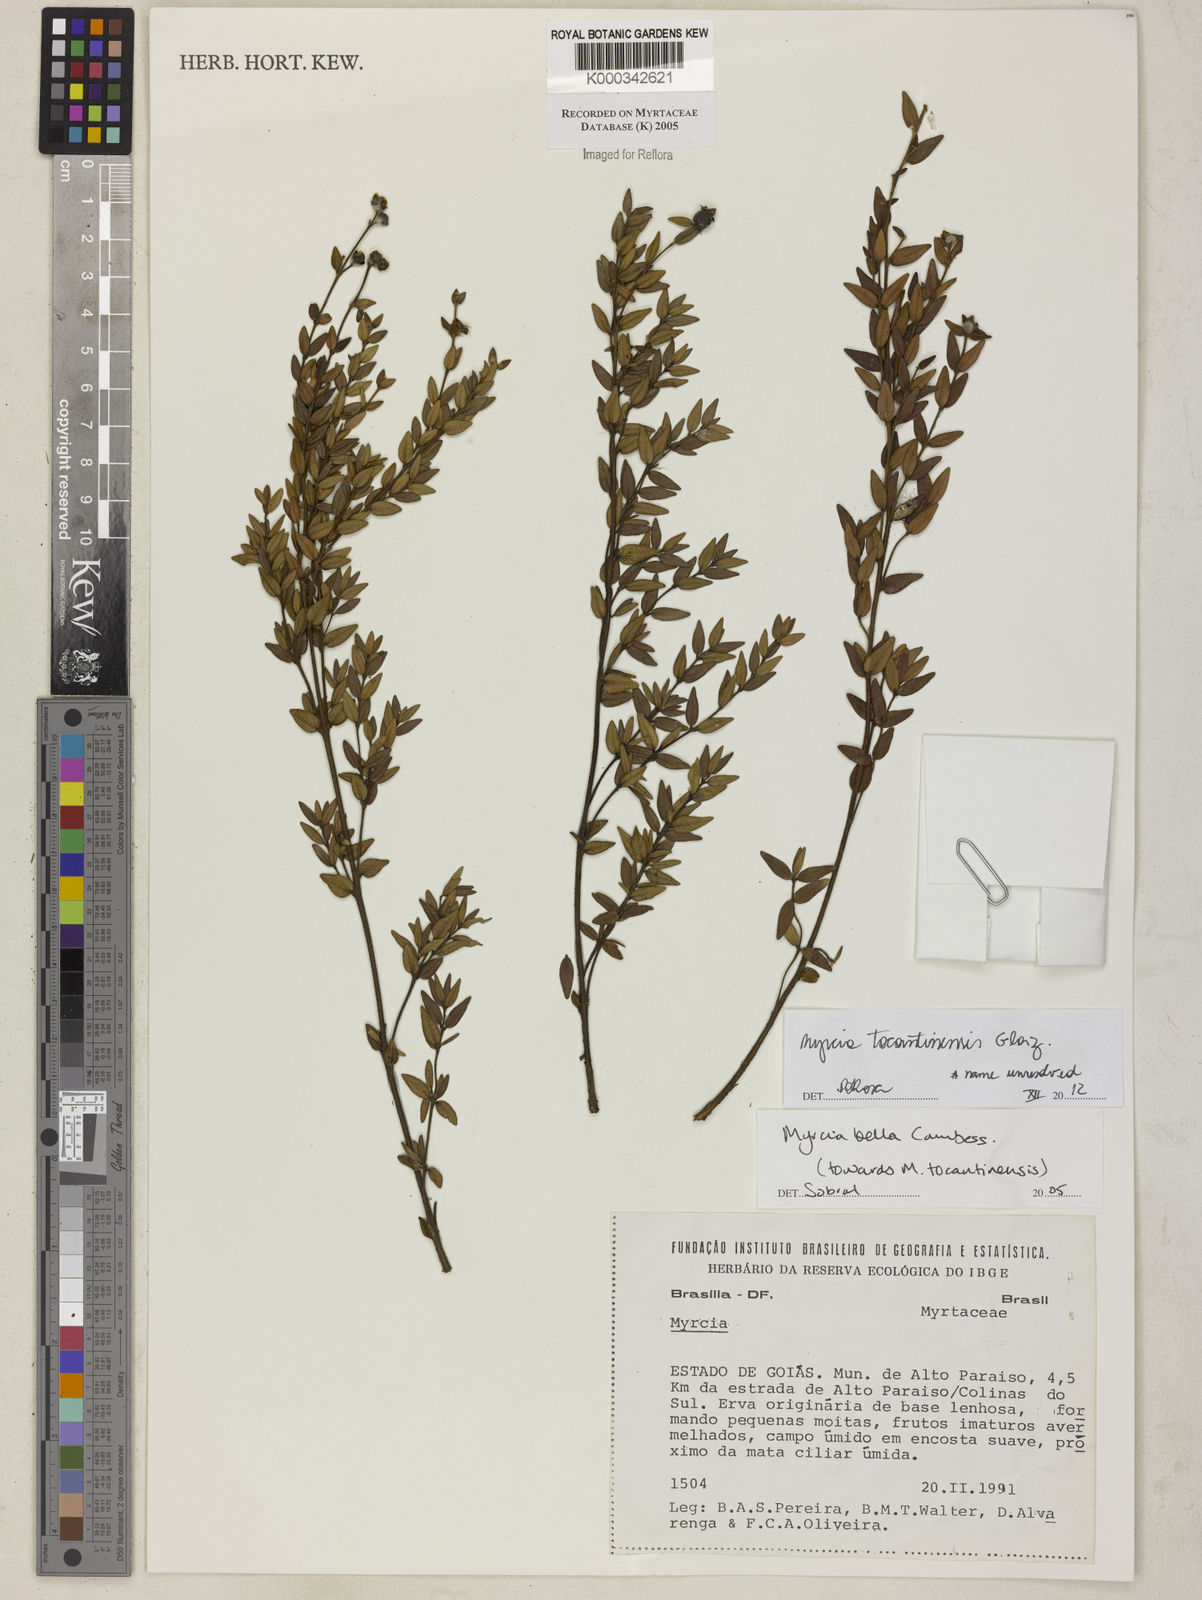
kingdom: Plantae
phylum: Tracheophyta
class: Magnoliopsida
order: Myrtales
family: Myrtaceae
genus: Myrcia
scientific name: Myrcia bella
